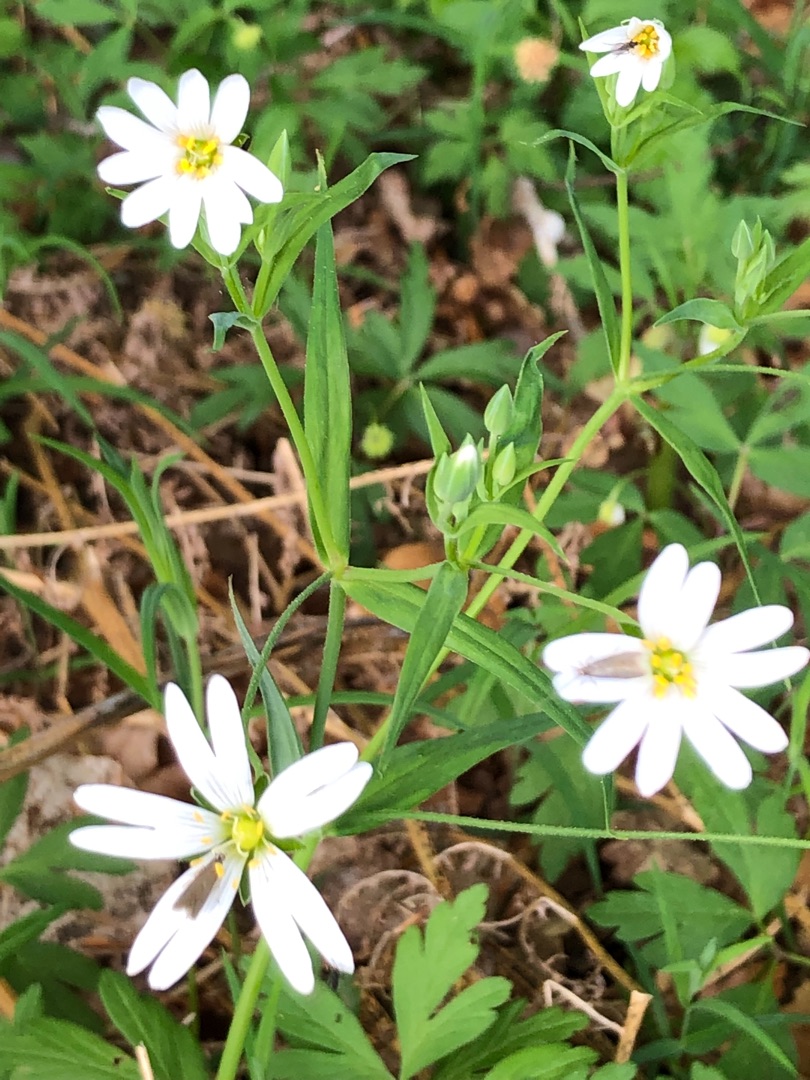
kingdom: Plantae
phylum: Tracheophyta
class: Magnoliopsida
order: Caryophyllales
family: Caryophyllaceae
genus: Rabelera
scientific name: Rabelera holostea
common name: Stor fladstjerne
